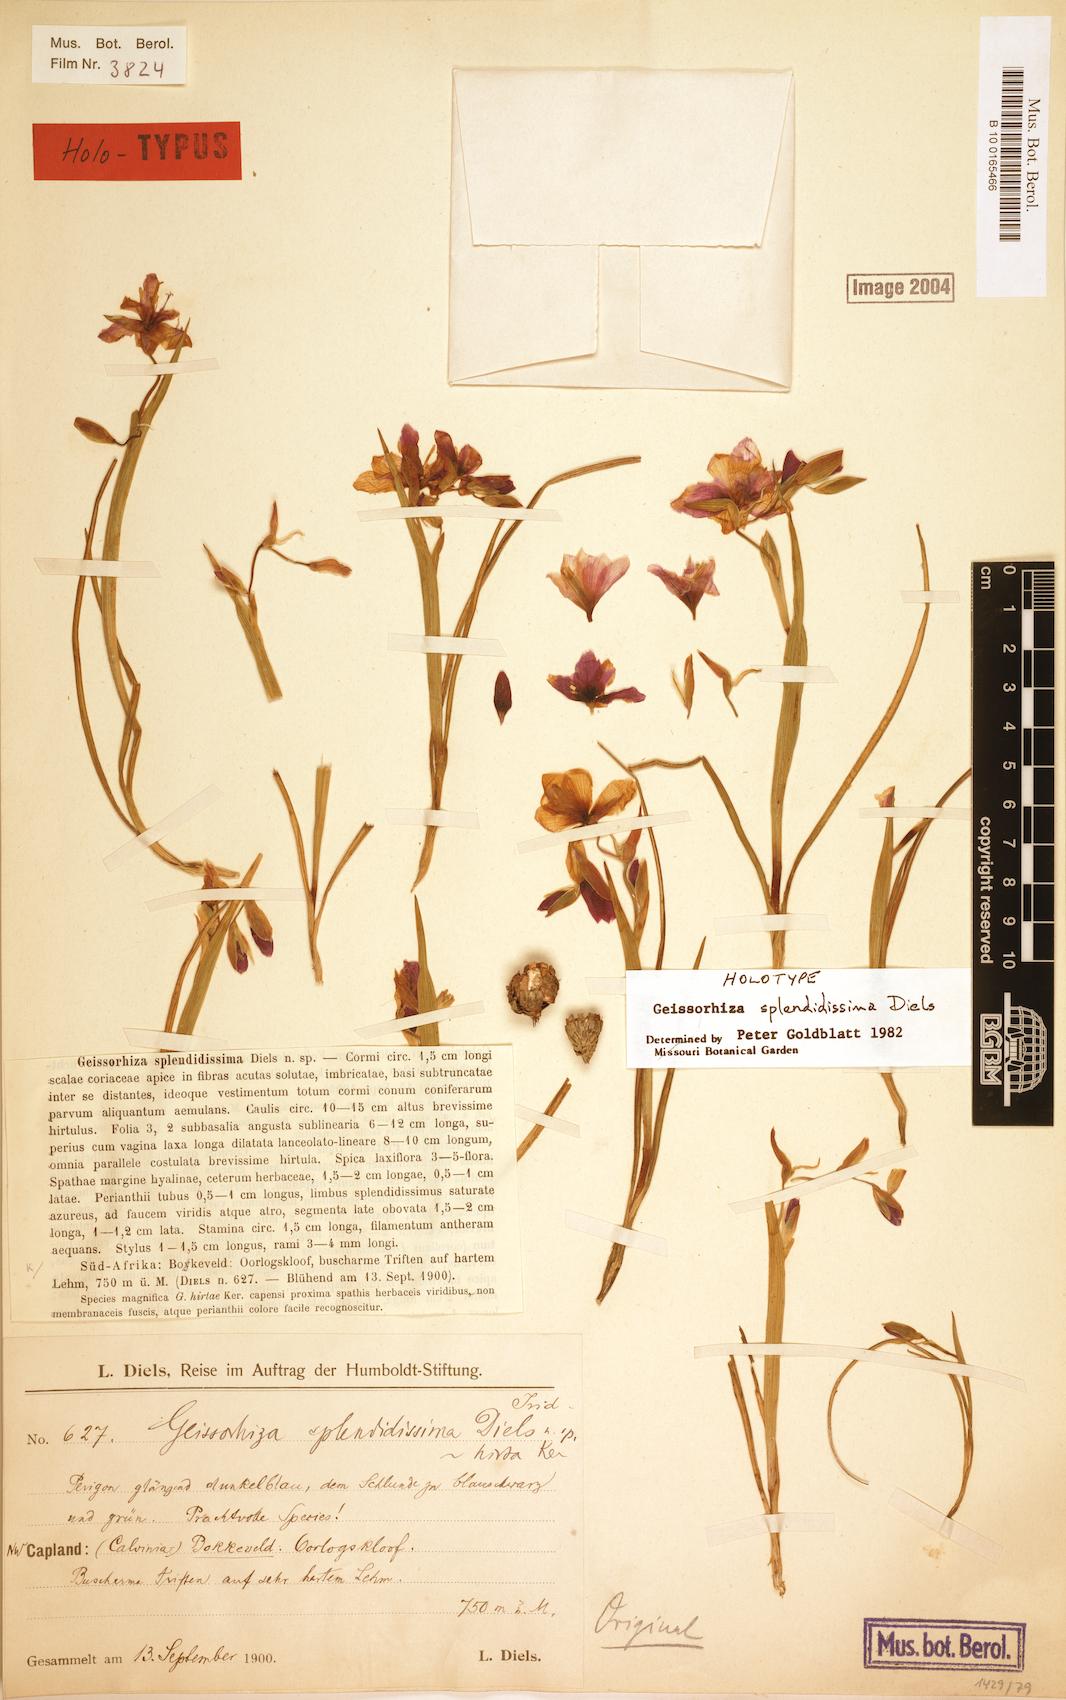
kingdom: Plantae
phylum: Tracheophyta
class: Liliopsida
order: Asparagales
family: Iridaceae
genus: Geissorhiza
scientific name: Geissorhiza splendidissima
